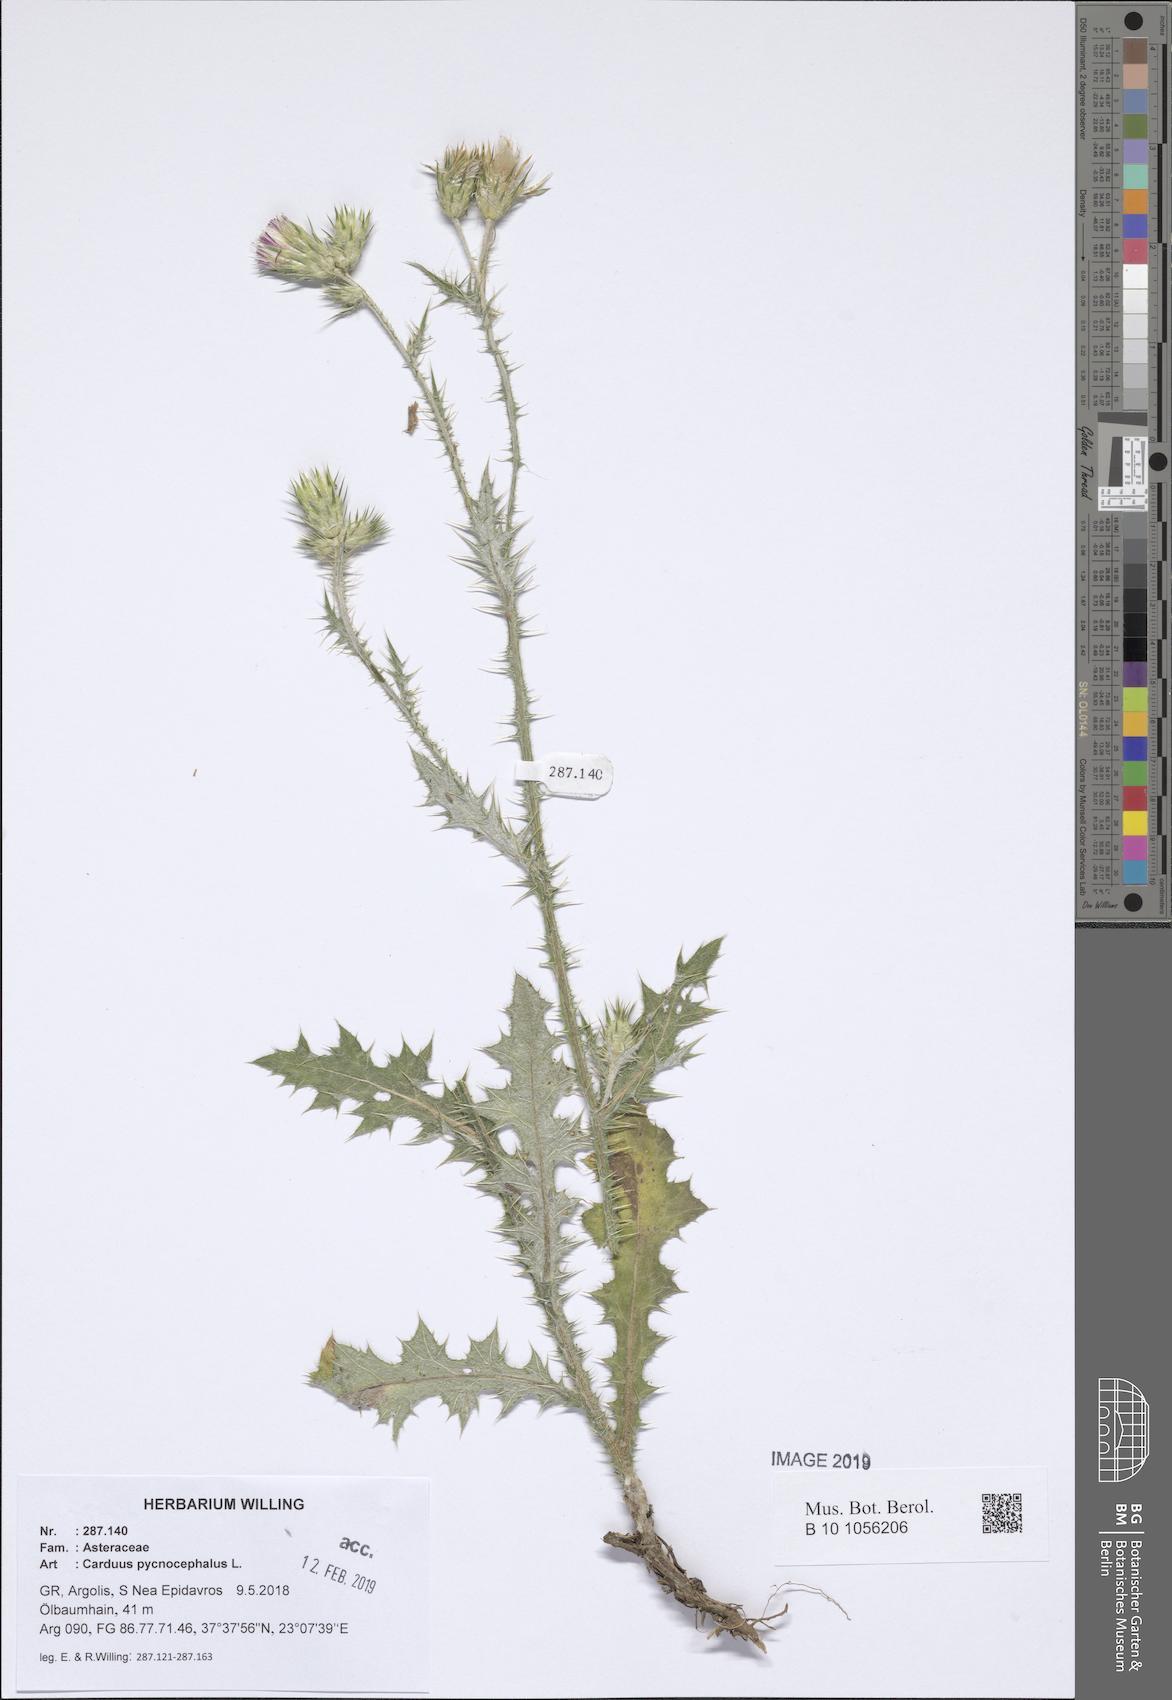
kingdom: Plantae
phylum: Tracheophyta
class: Magnoliopsida
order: Asterales
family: Asteraceae
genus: Carduus
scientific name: Carduus pycnocephalus
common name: Plymouth thistle
